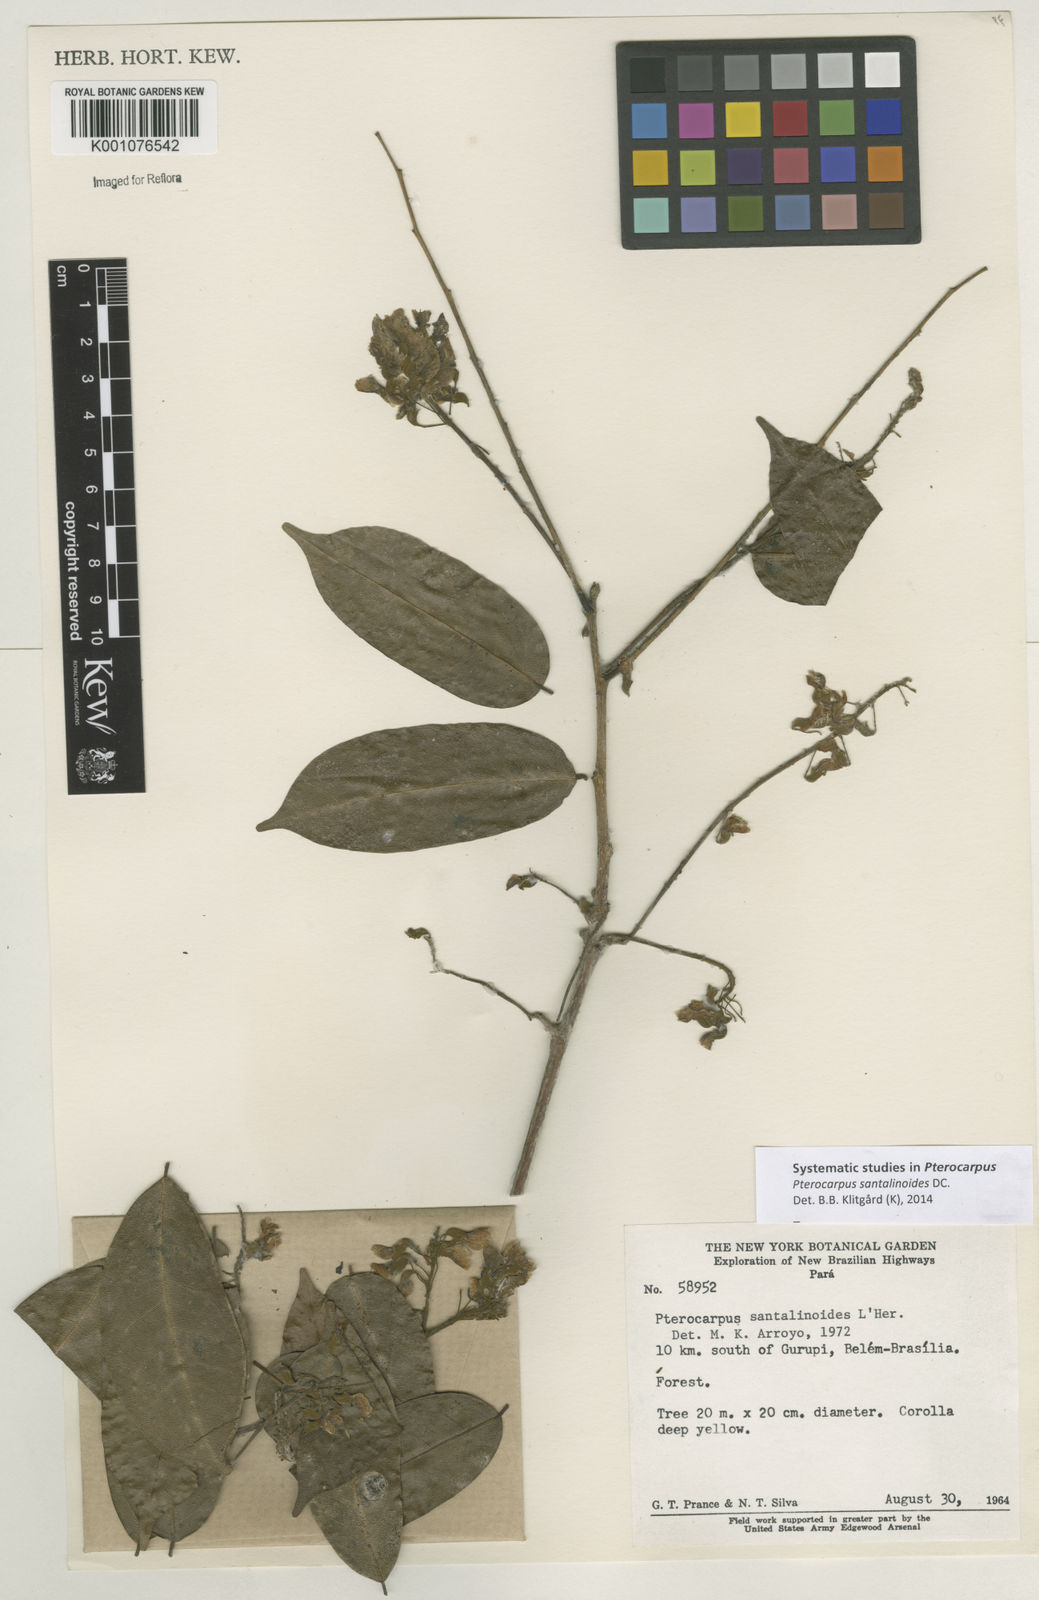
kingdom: Plantae
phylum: Tracheophyta
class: Magnoliopsida
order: Fabales
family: Fabaceae
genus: Pterocarpus
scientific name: Pterocarpus santalinoides
